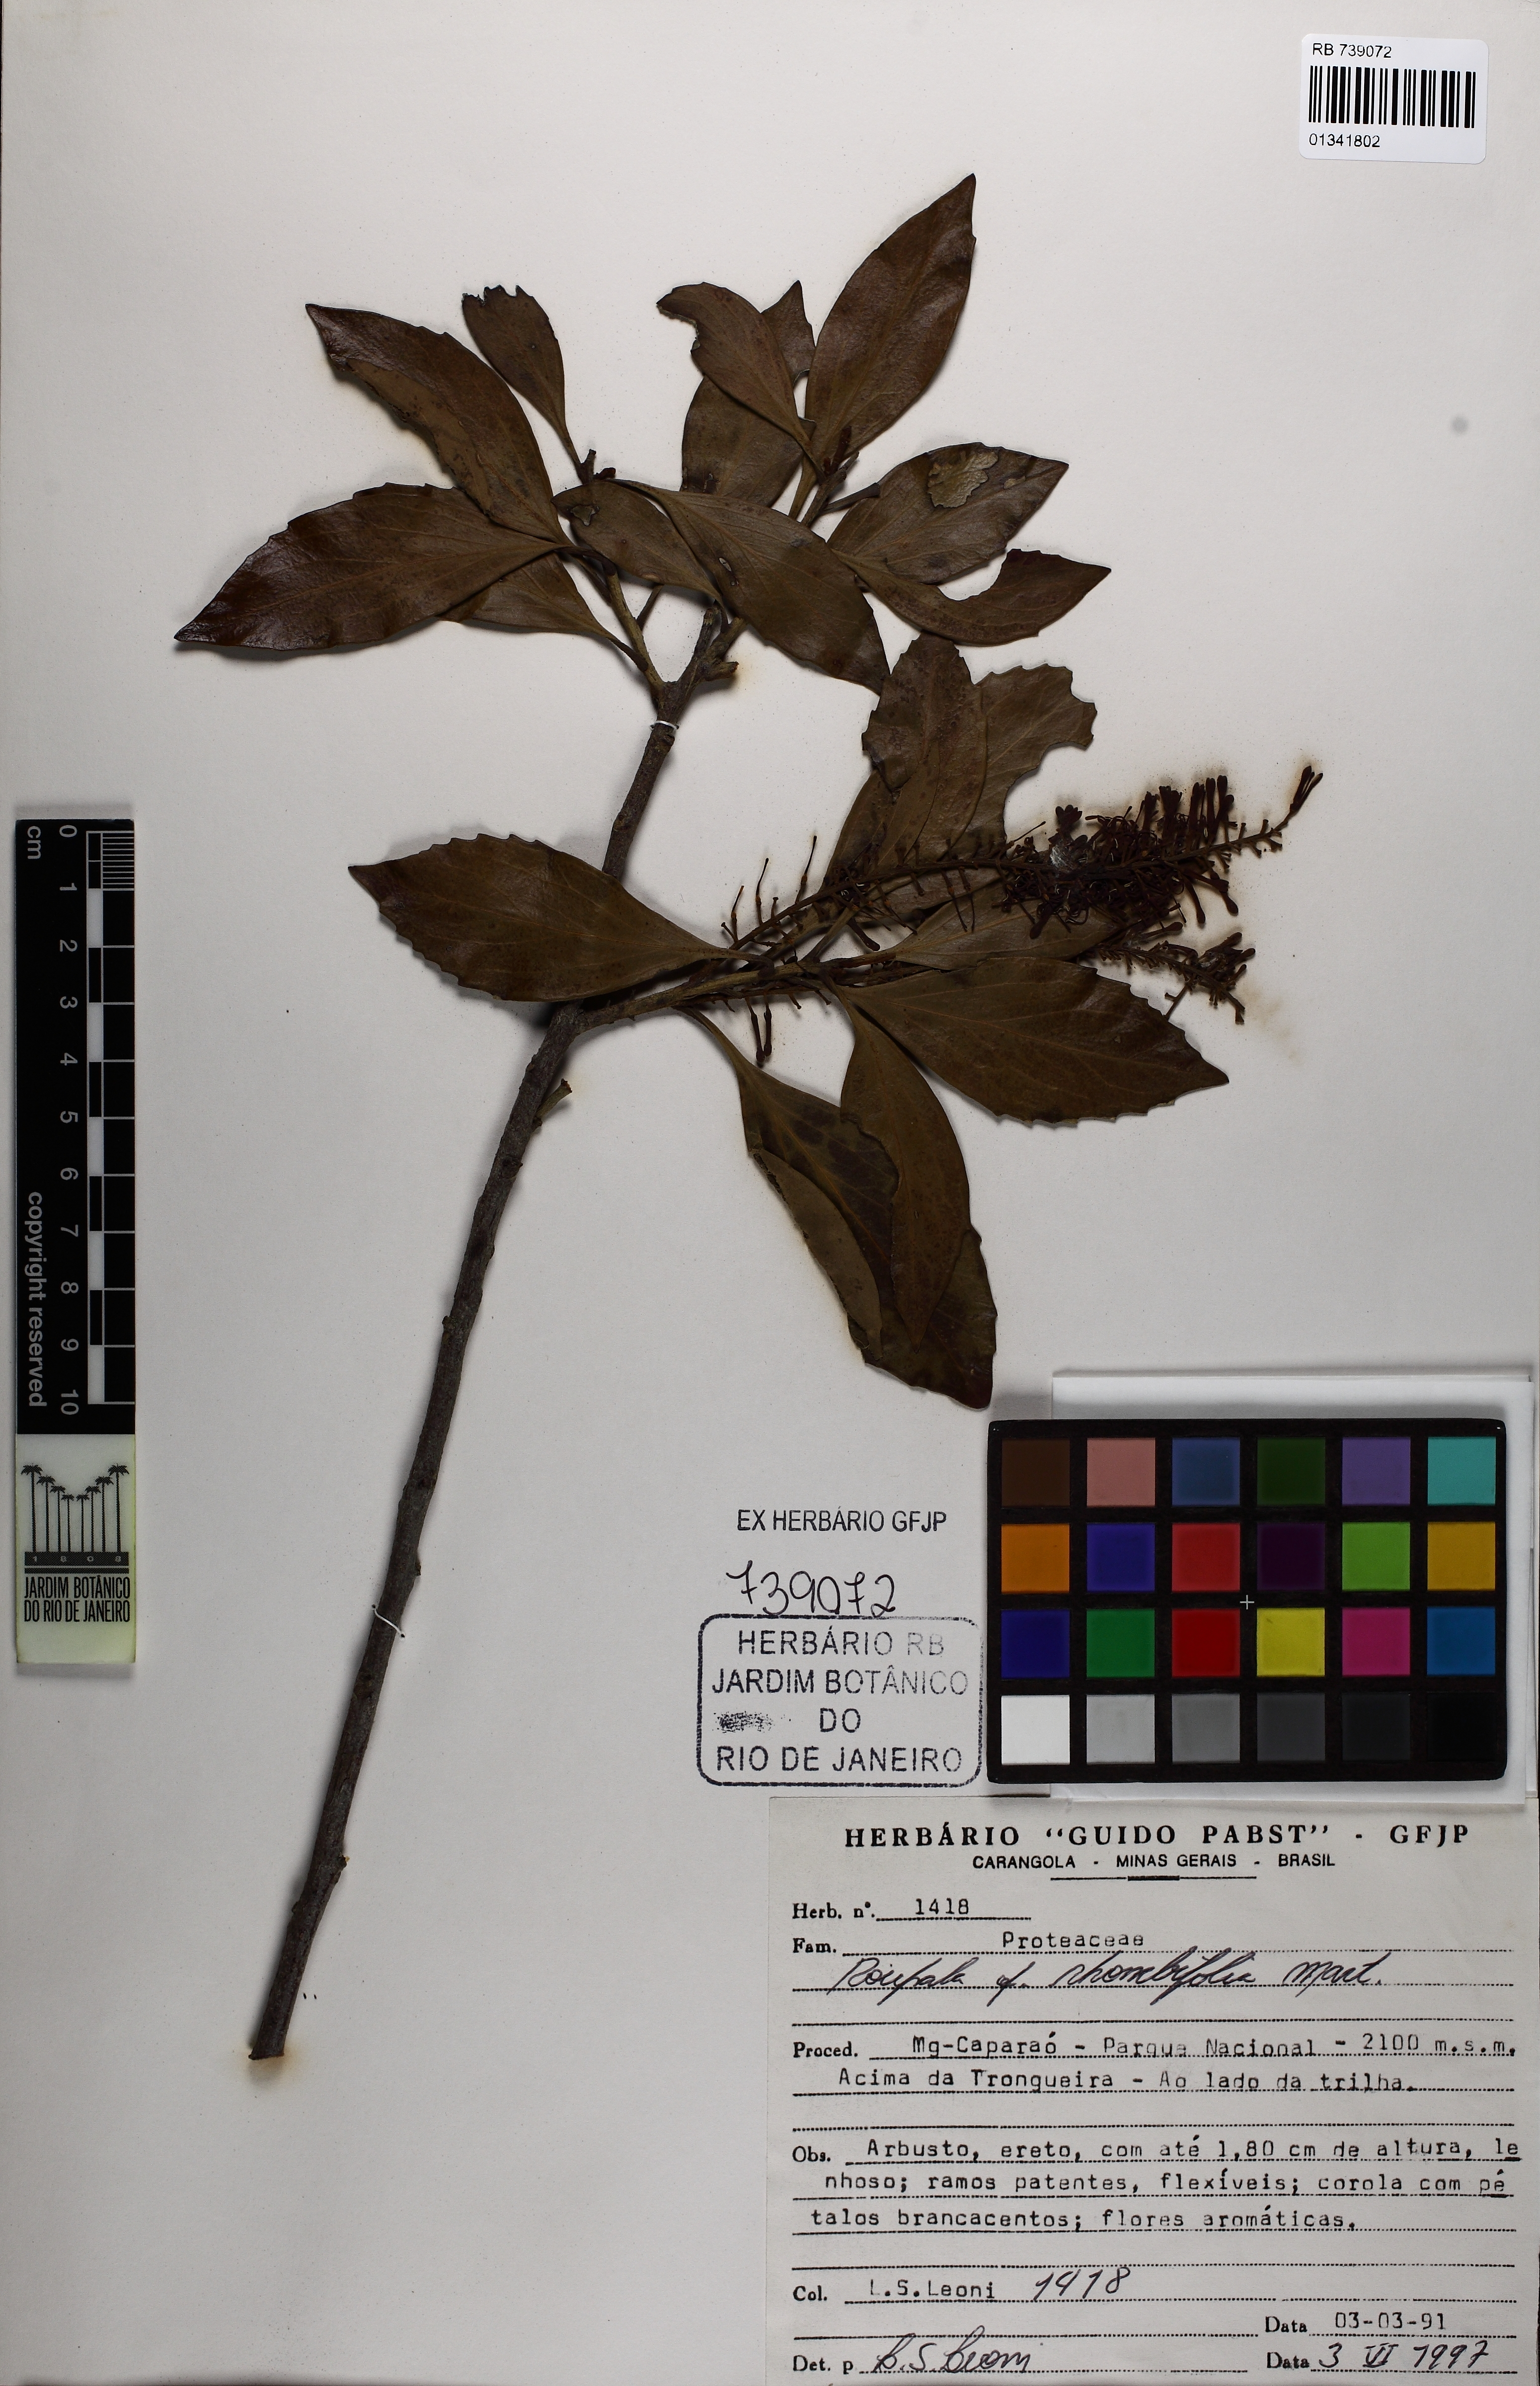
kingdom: Plantae
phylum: Tracheophyta
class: Magnoliopsida
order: Proteales
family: Proteaceae
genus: Roupala
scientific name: Roupala montana
